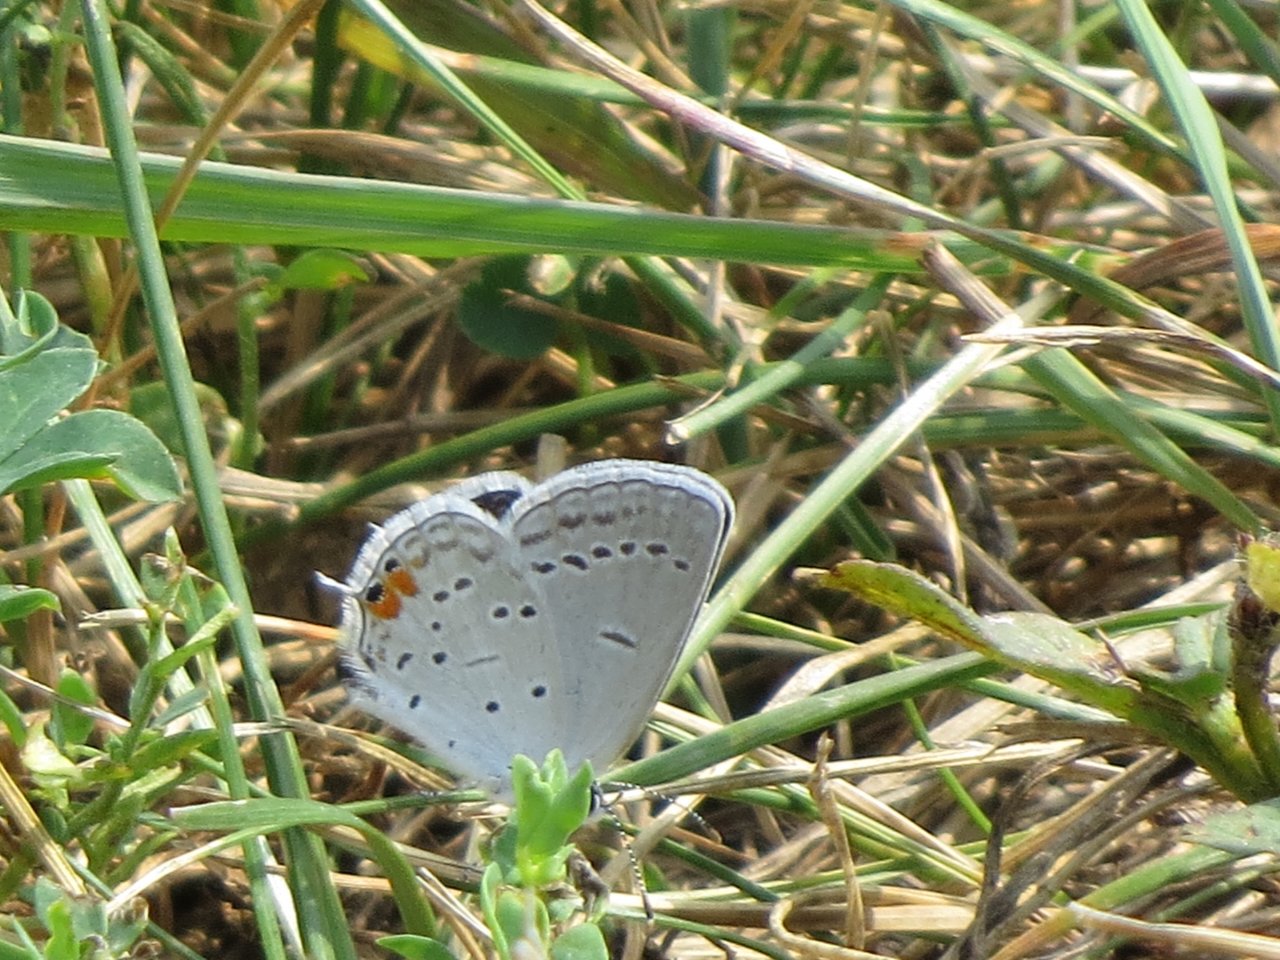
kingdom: Animalia
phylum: Arthropoda
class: Insecta
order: Lepidoptera
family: Lycaenidae
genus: Elkalyce
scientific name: Elkalyce comyntas
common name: Eastern Tailed-Blue
